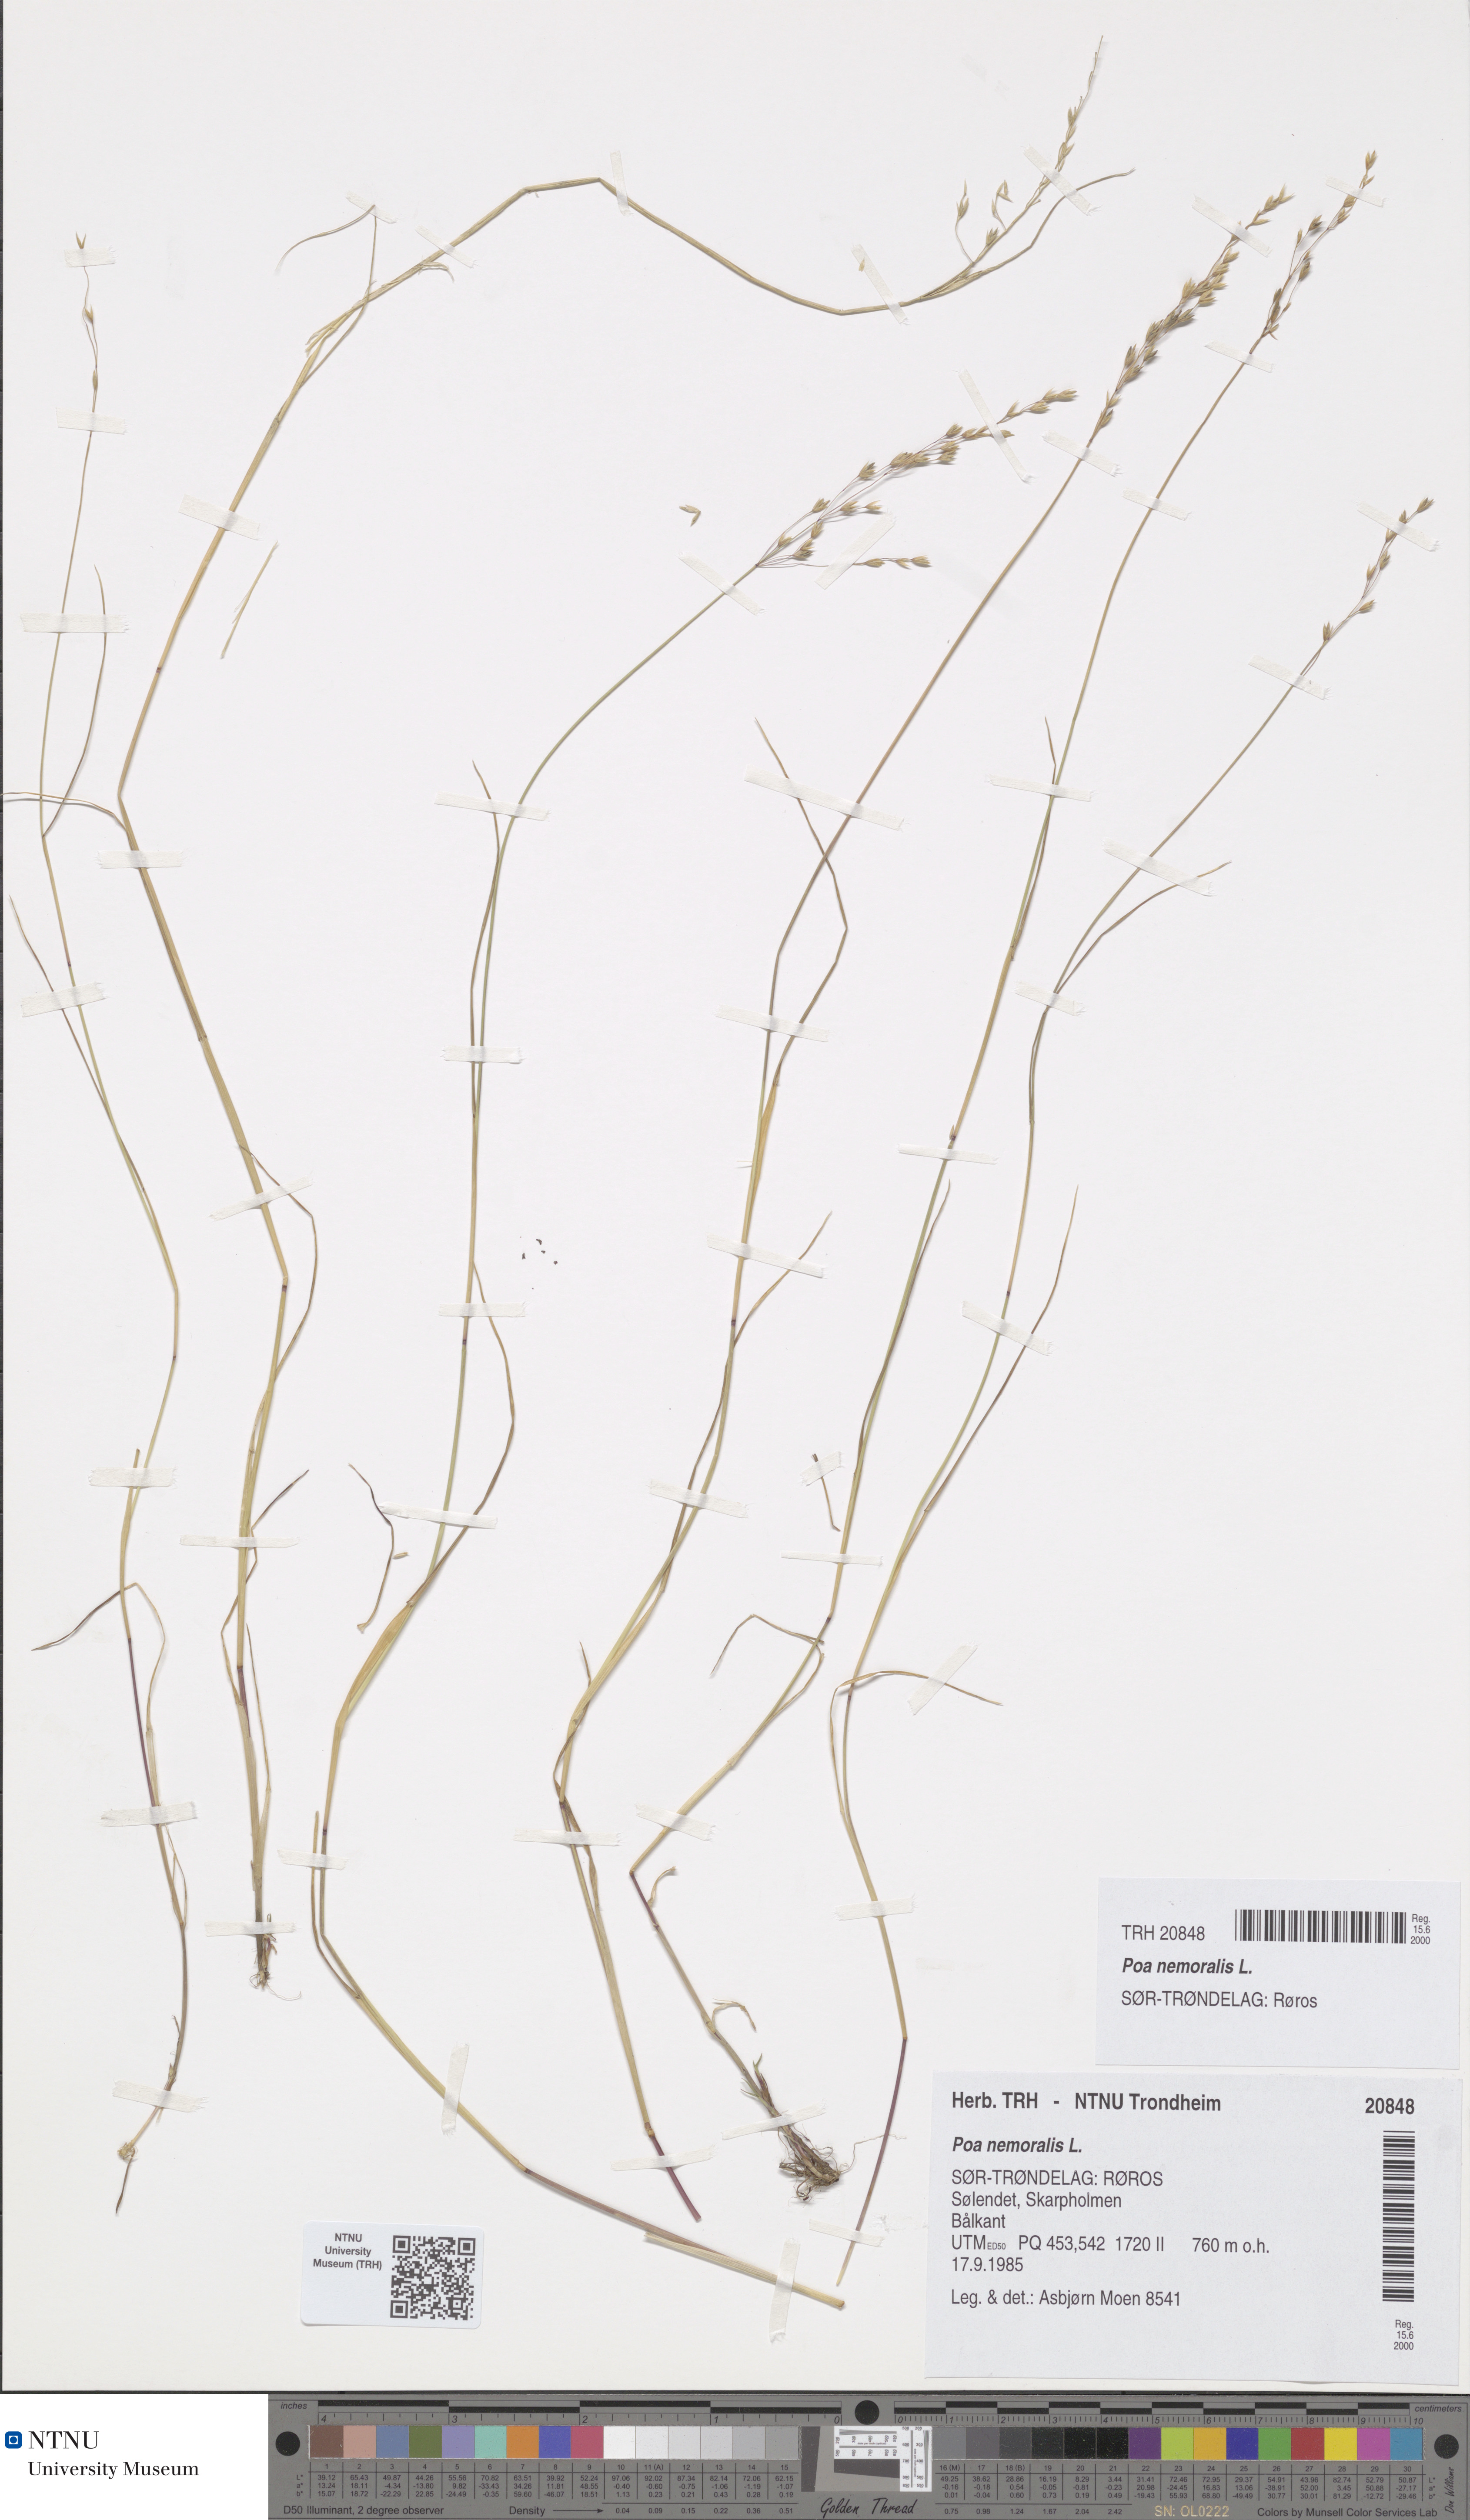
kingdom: Plantae
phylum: Tracheophyta
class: Liliopsida
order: Poales
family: Poaceae
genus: Poa
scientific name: Poa nemoralis
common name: Wood bluegrass
